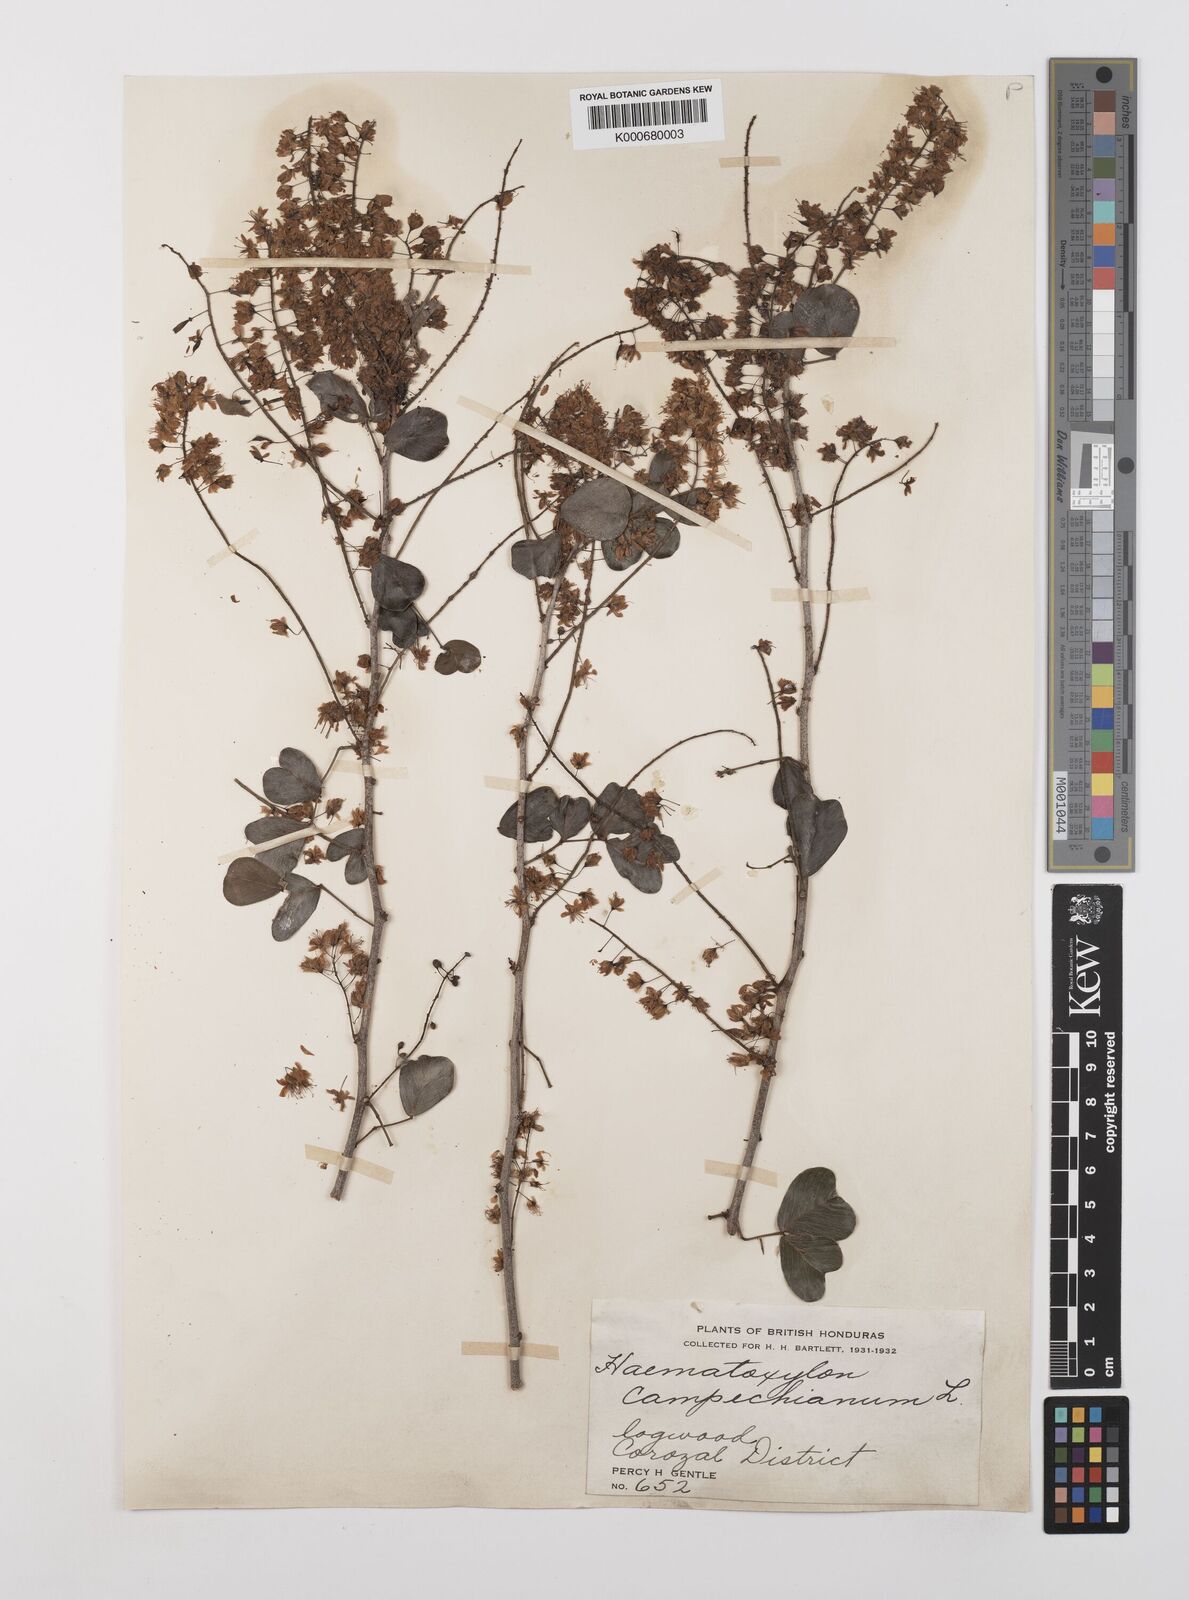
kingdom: Plantae
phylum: Tracheophyta
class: Magnoliopsida
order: Fabales
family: Fabaceae
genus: Haematoxylum
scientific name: Haematoxylum
